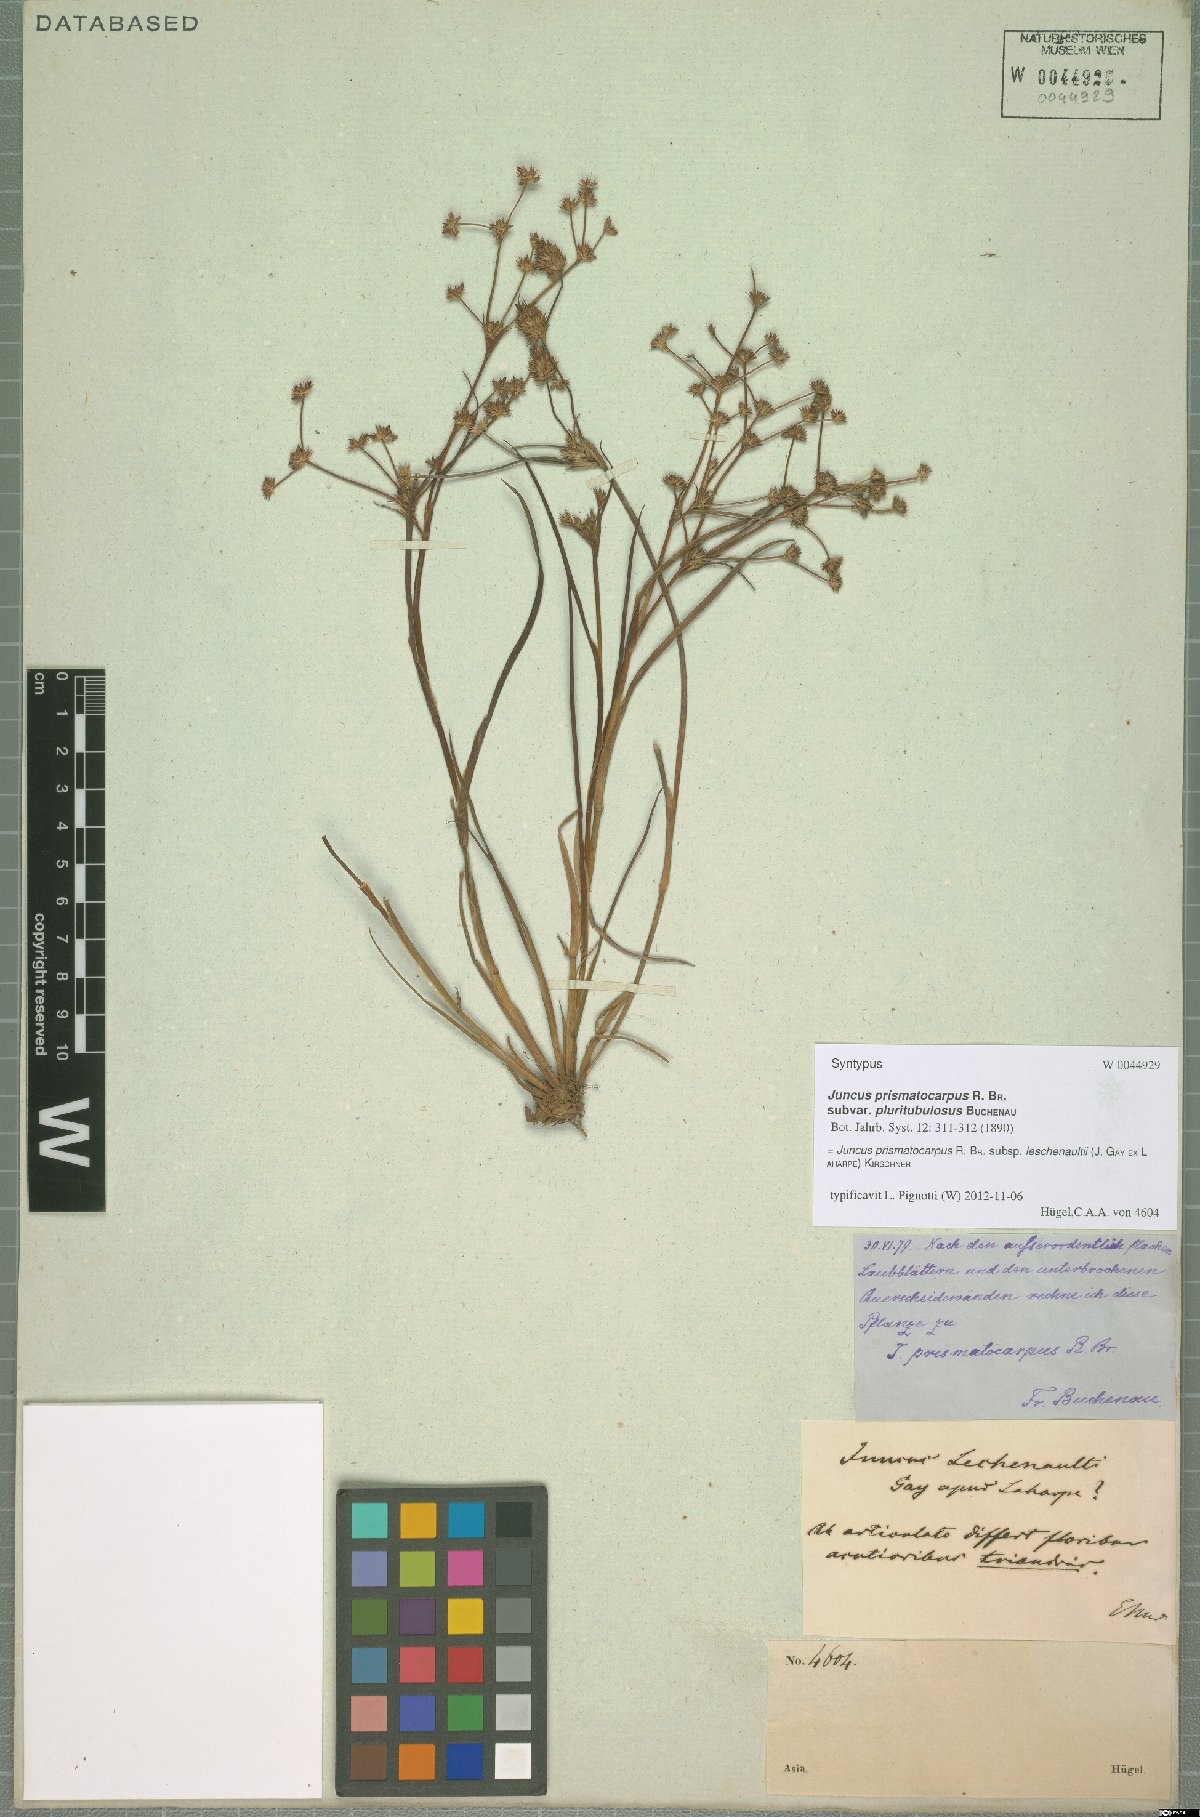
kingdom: Plantae
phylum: Tracheophyta
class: Liliopsida
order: Poales
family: Juncaceae
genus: Juncus
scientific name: Juncus prismatocarpus
